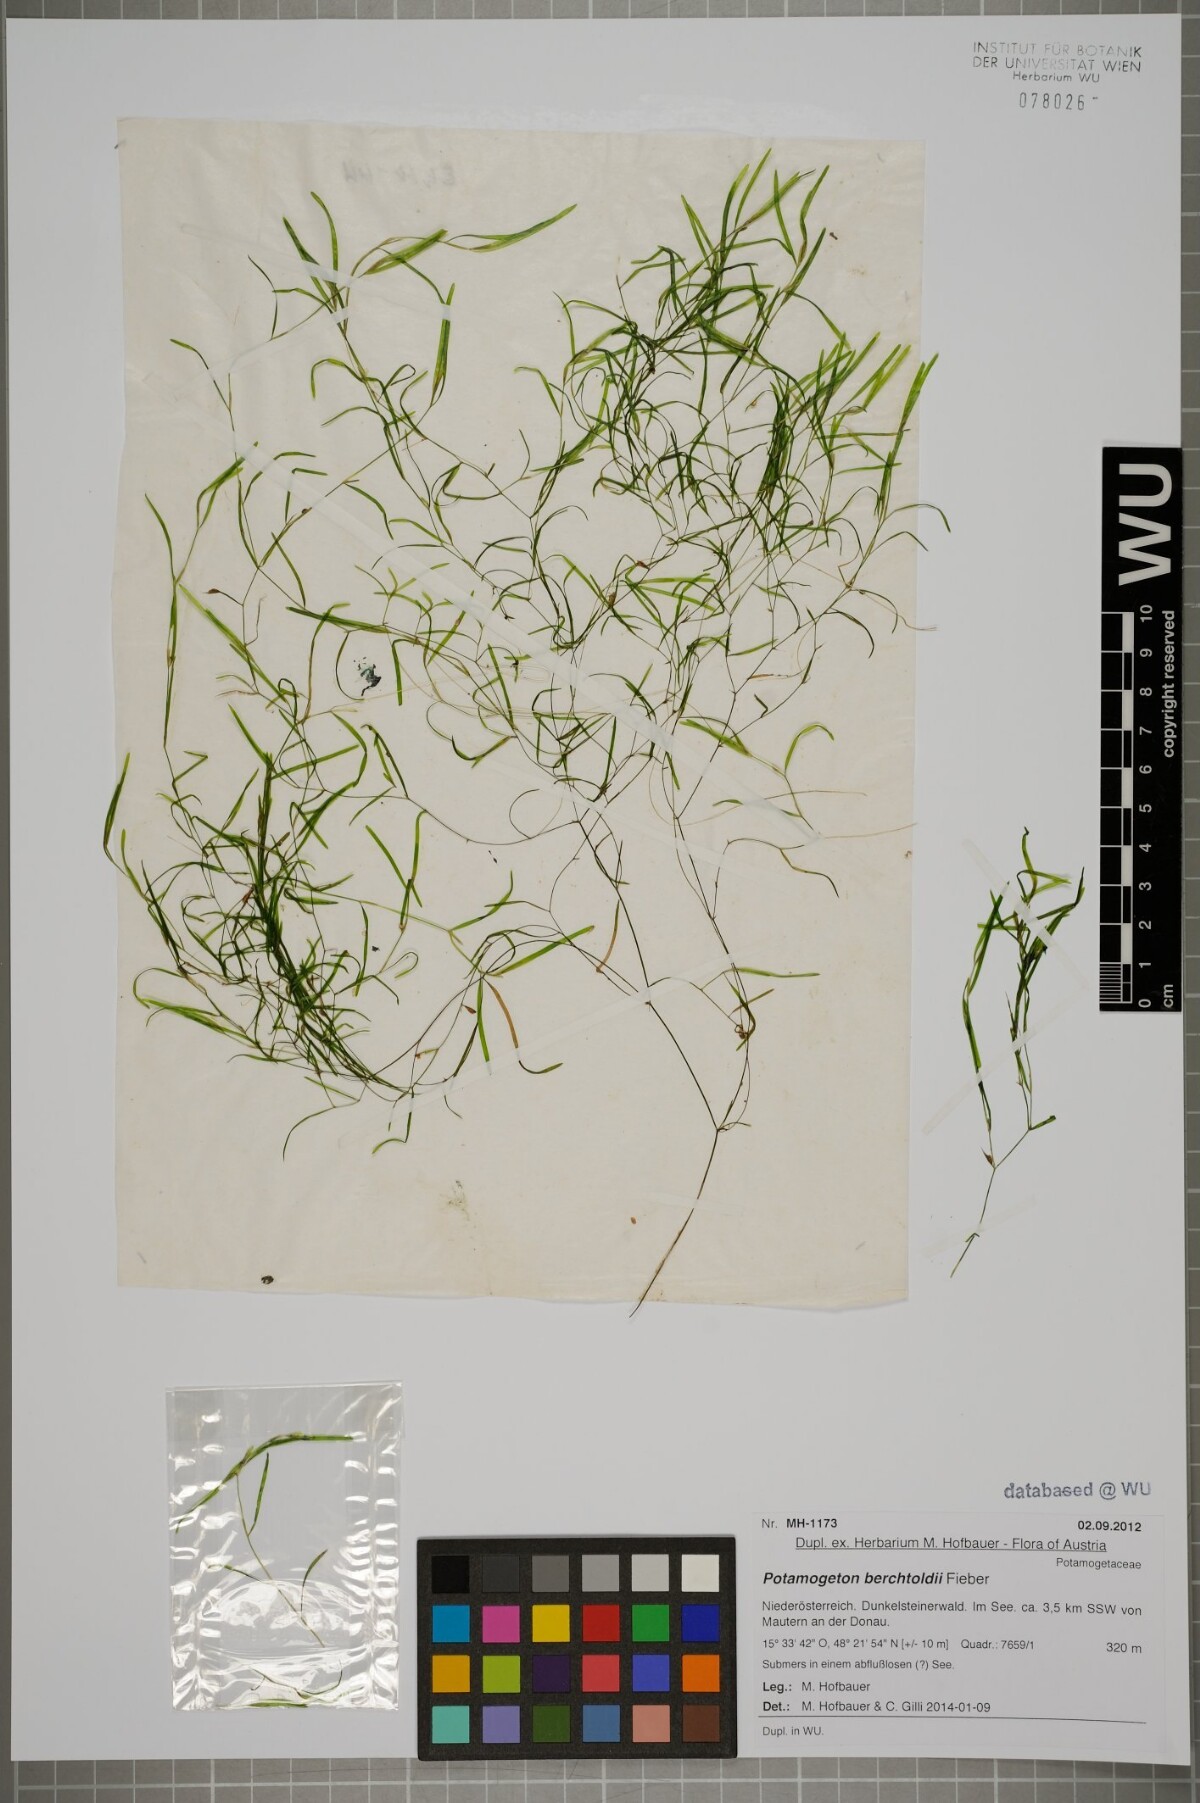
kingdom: Plantae
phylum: Tracheophyta
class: Liliopsida
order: Alismatales
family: Potamogetonaceae
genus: Potamogeton
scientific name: Potamogeton berchtoldii
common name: Small pondweed
